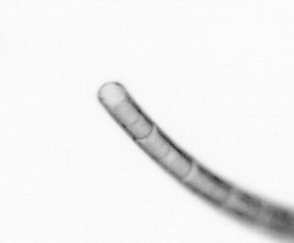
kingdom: Chromista
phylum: Ochrophyta
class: Bacillariophyceae
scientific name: Bacillariophyceae
